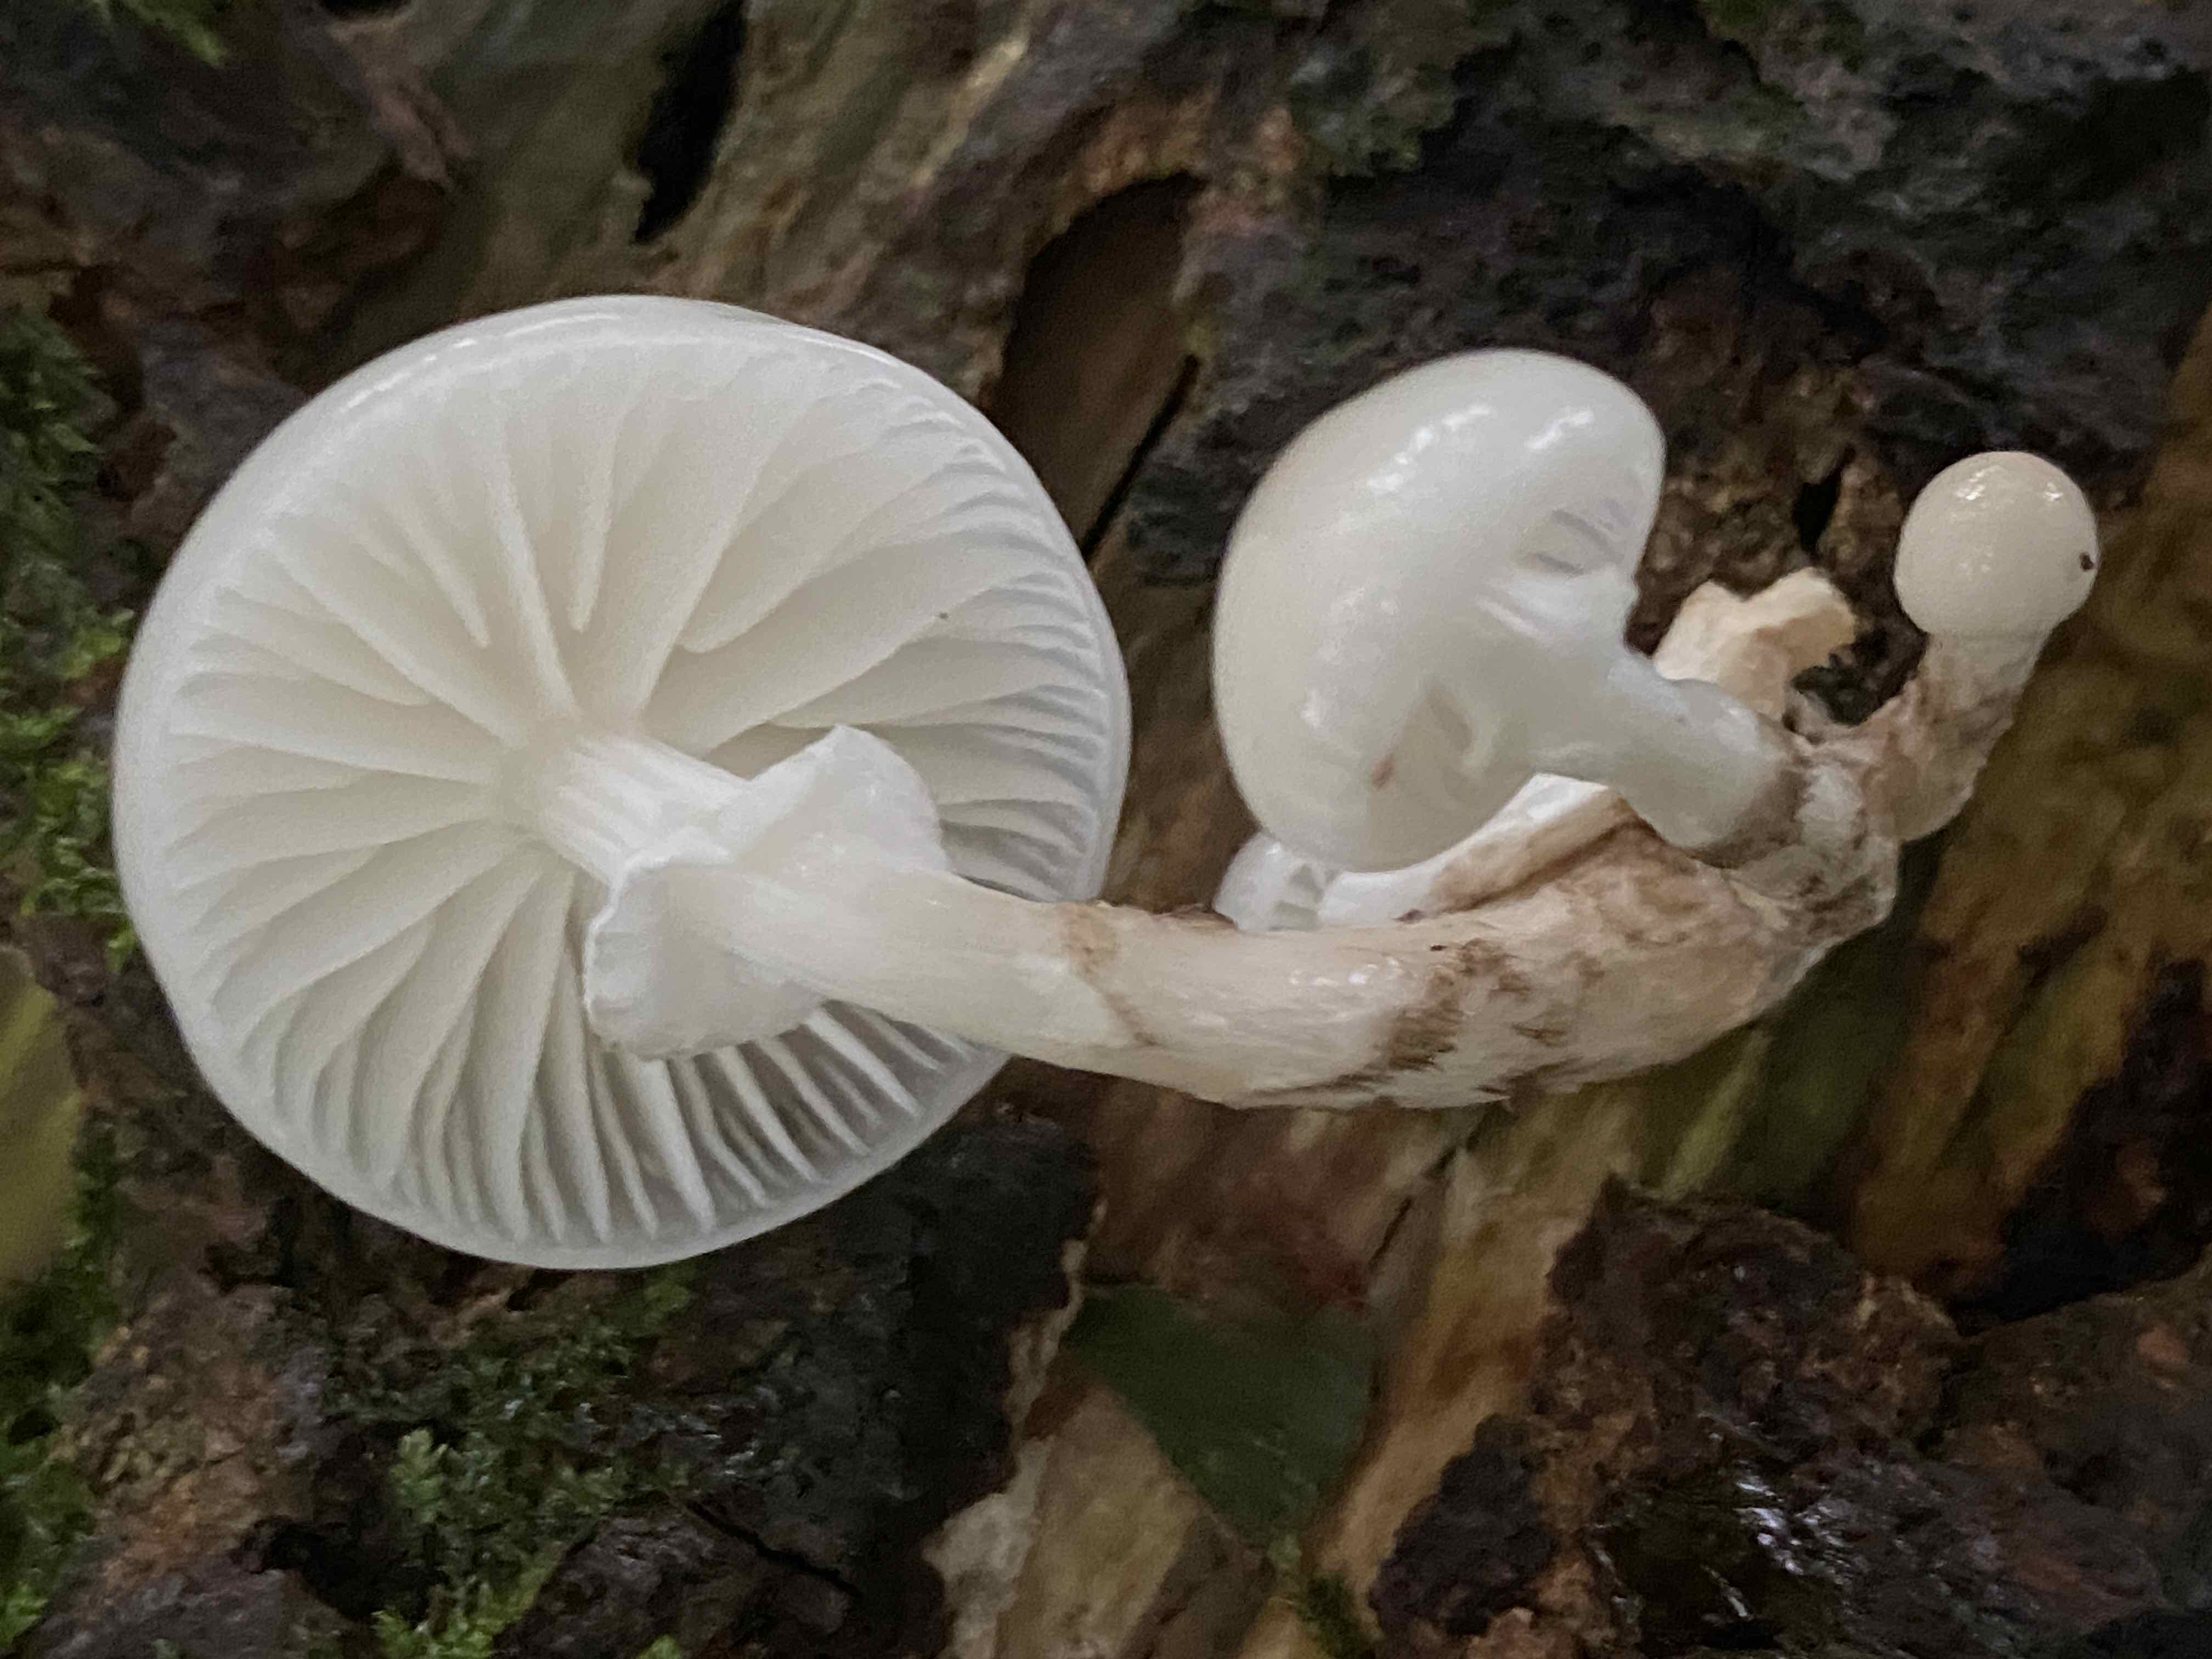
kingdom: Fungi
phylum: Basidiomycota
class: Agaricomycetes
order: Agaricales
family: Physalacriaceae
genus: Mucidula
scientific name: Mucidula mucida
